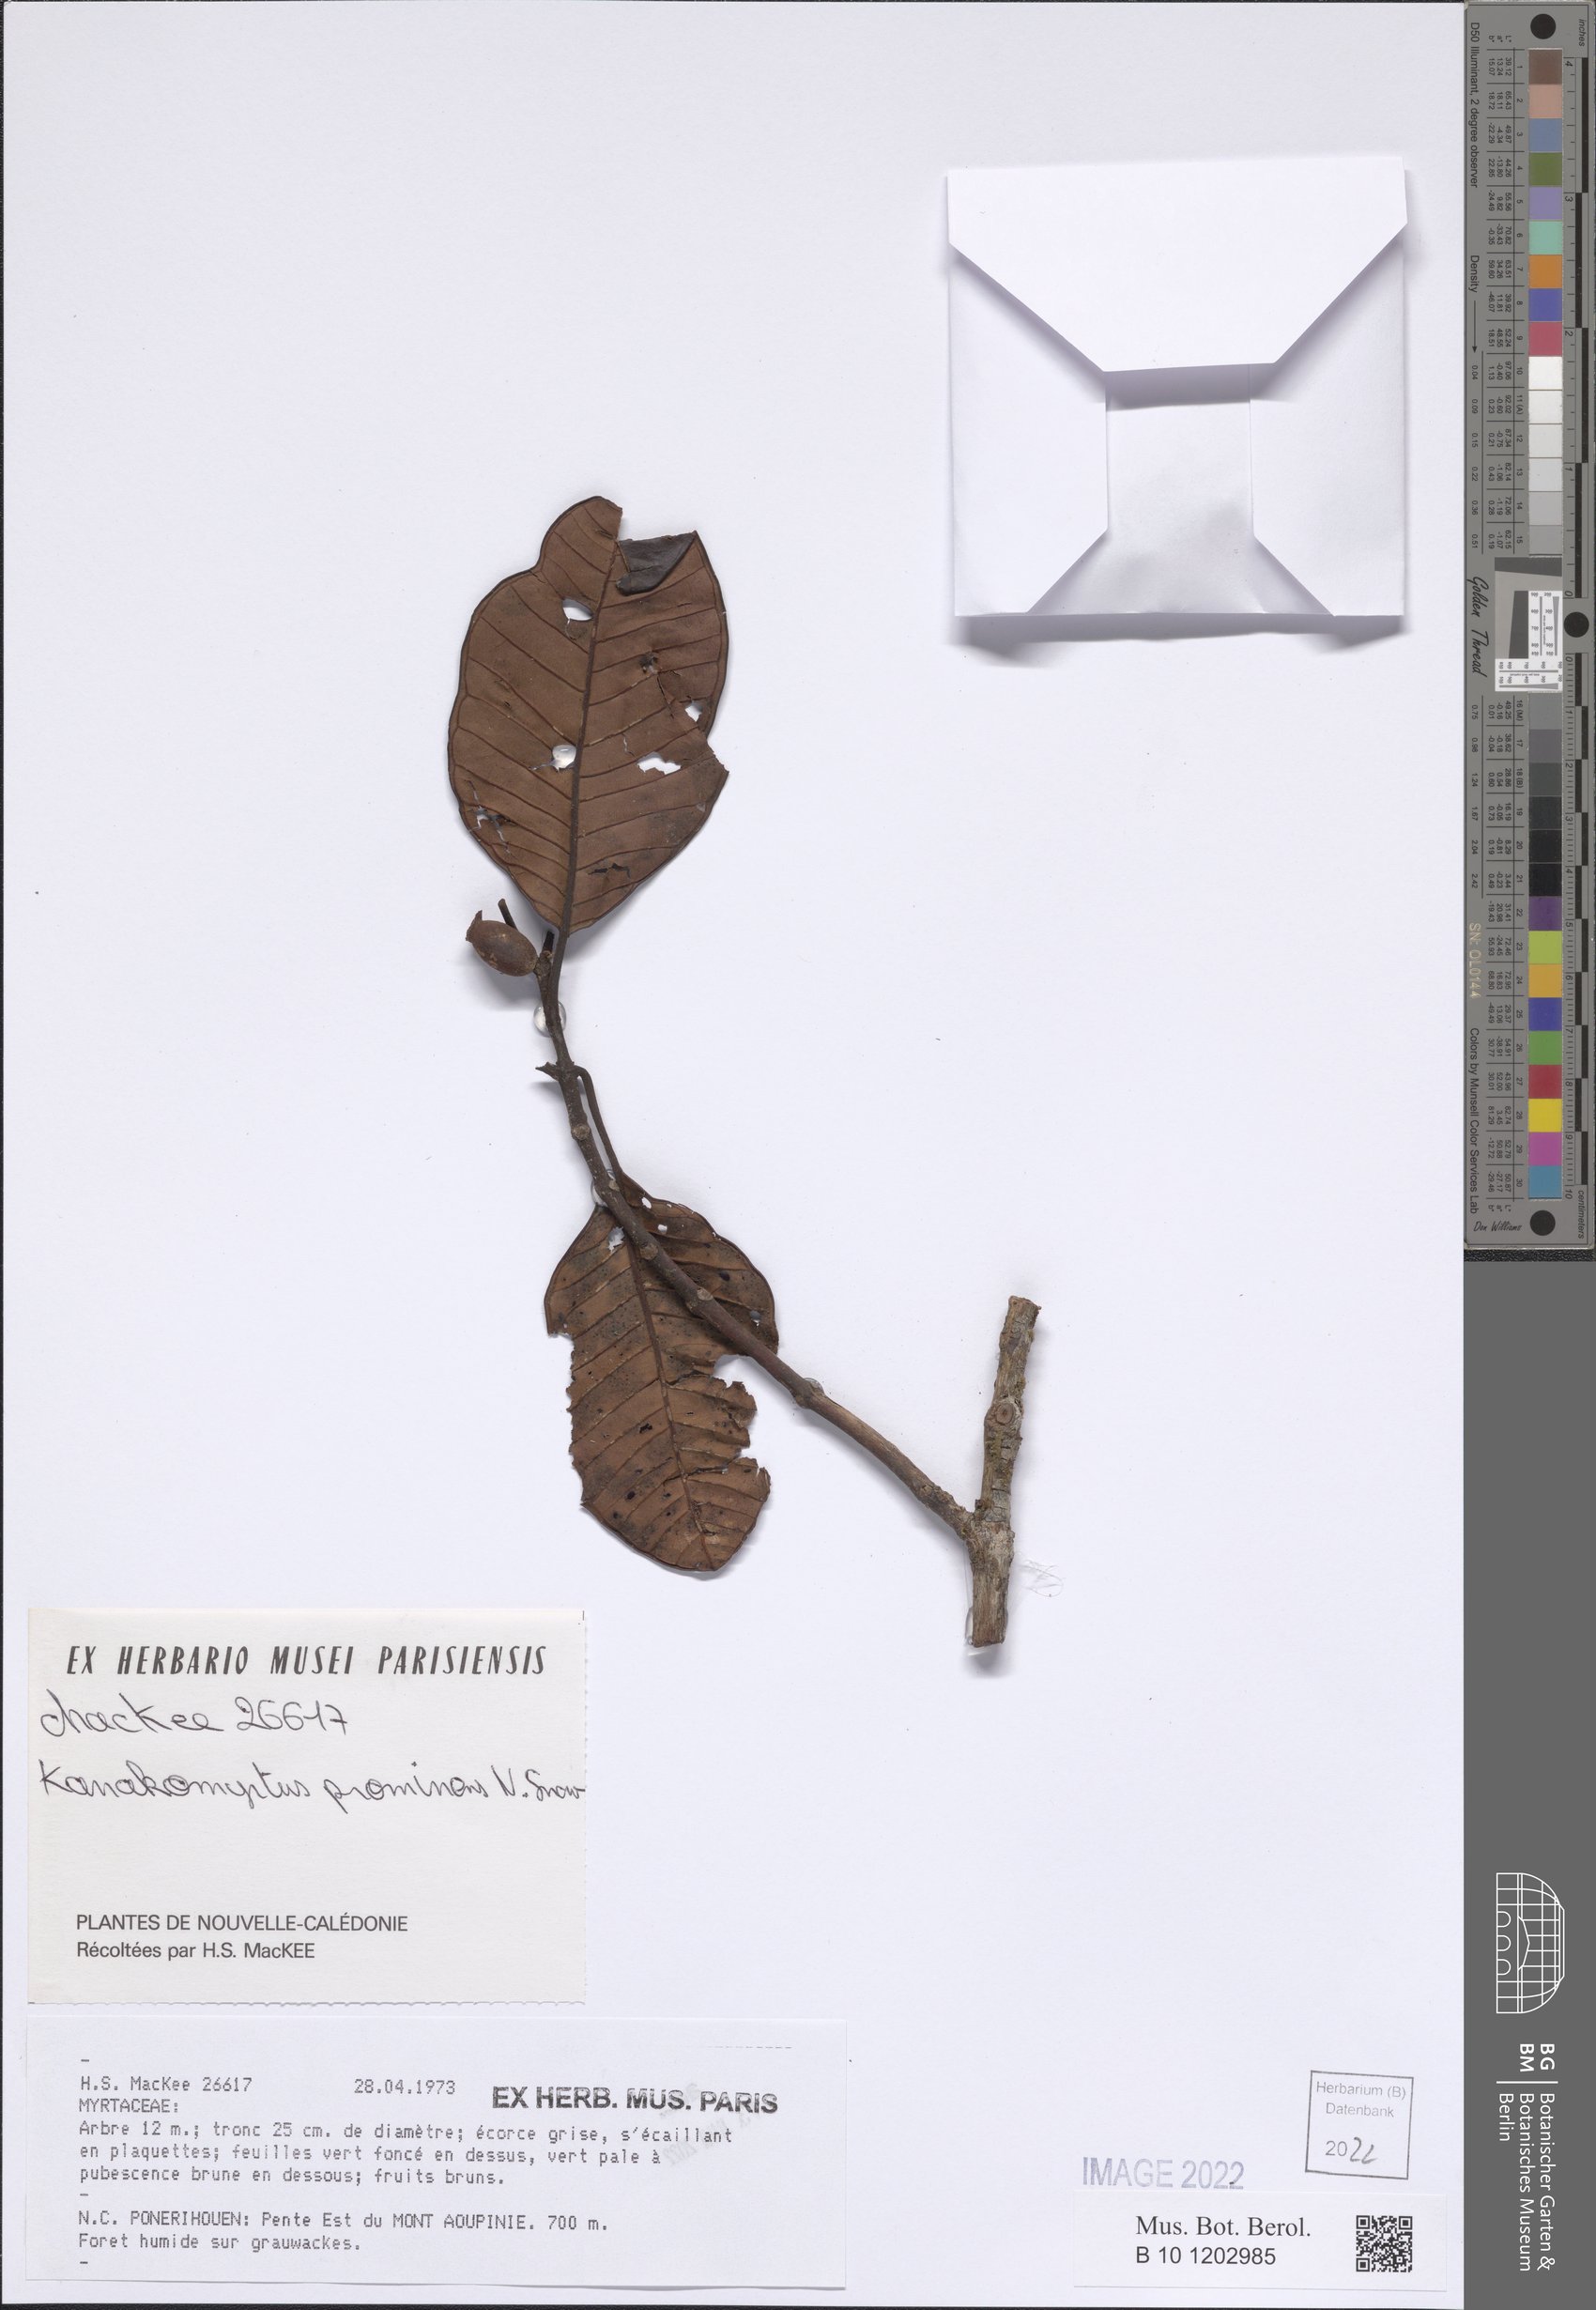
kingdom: Plantae
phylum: Tracheophyta
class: Magnoliopsida
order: Myrtales
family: Myrtaceae
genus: Kanakomyrtus
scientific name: Kanakomyrtus prominens
